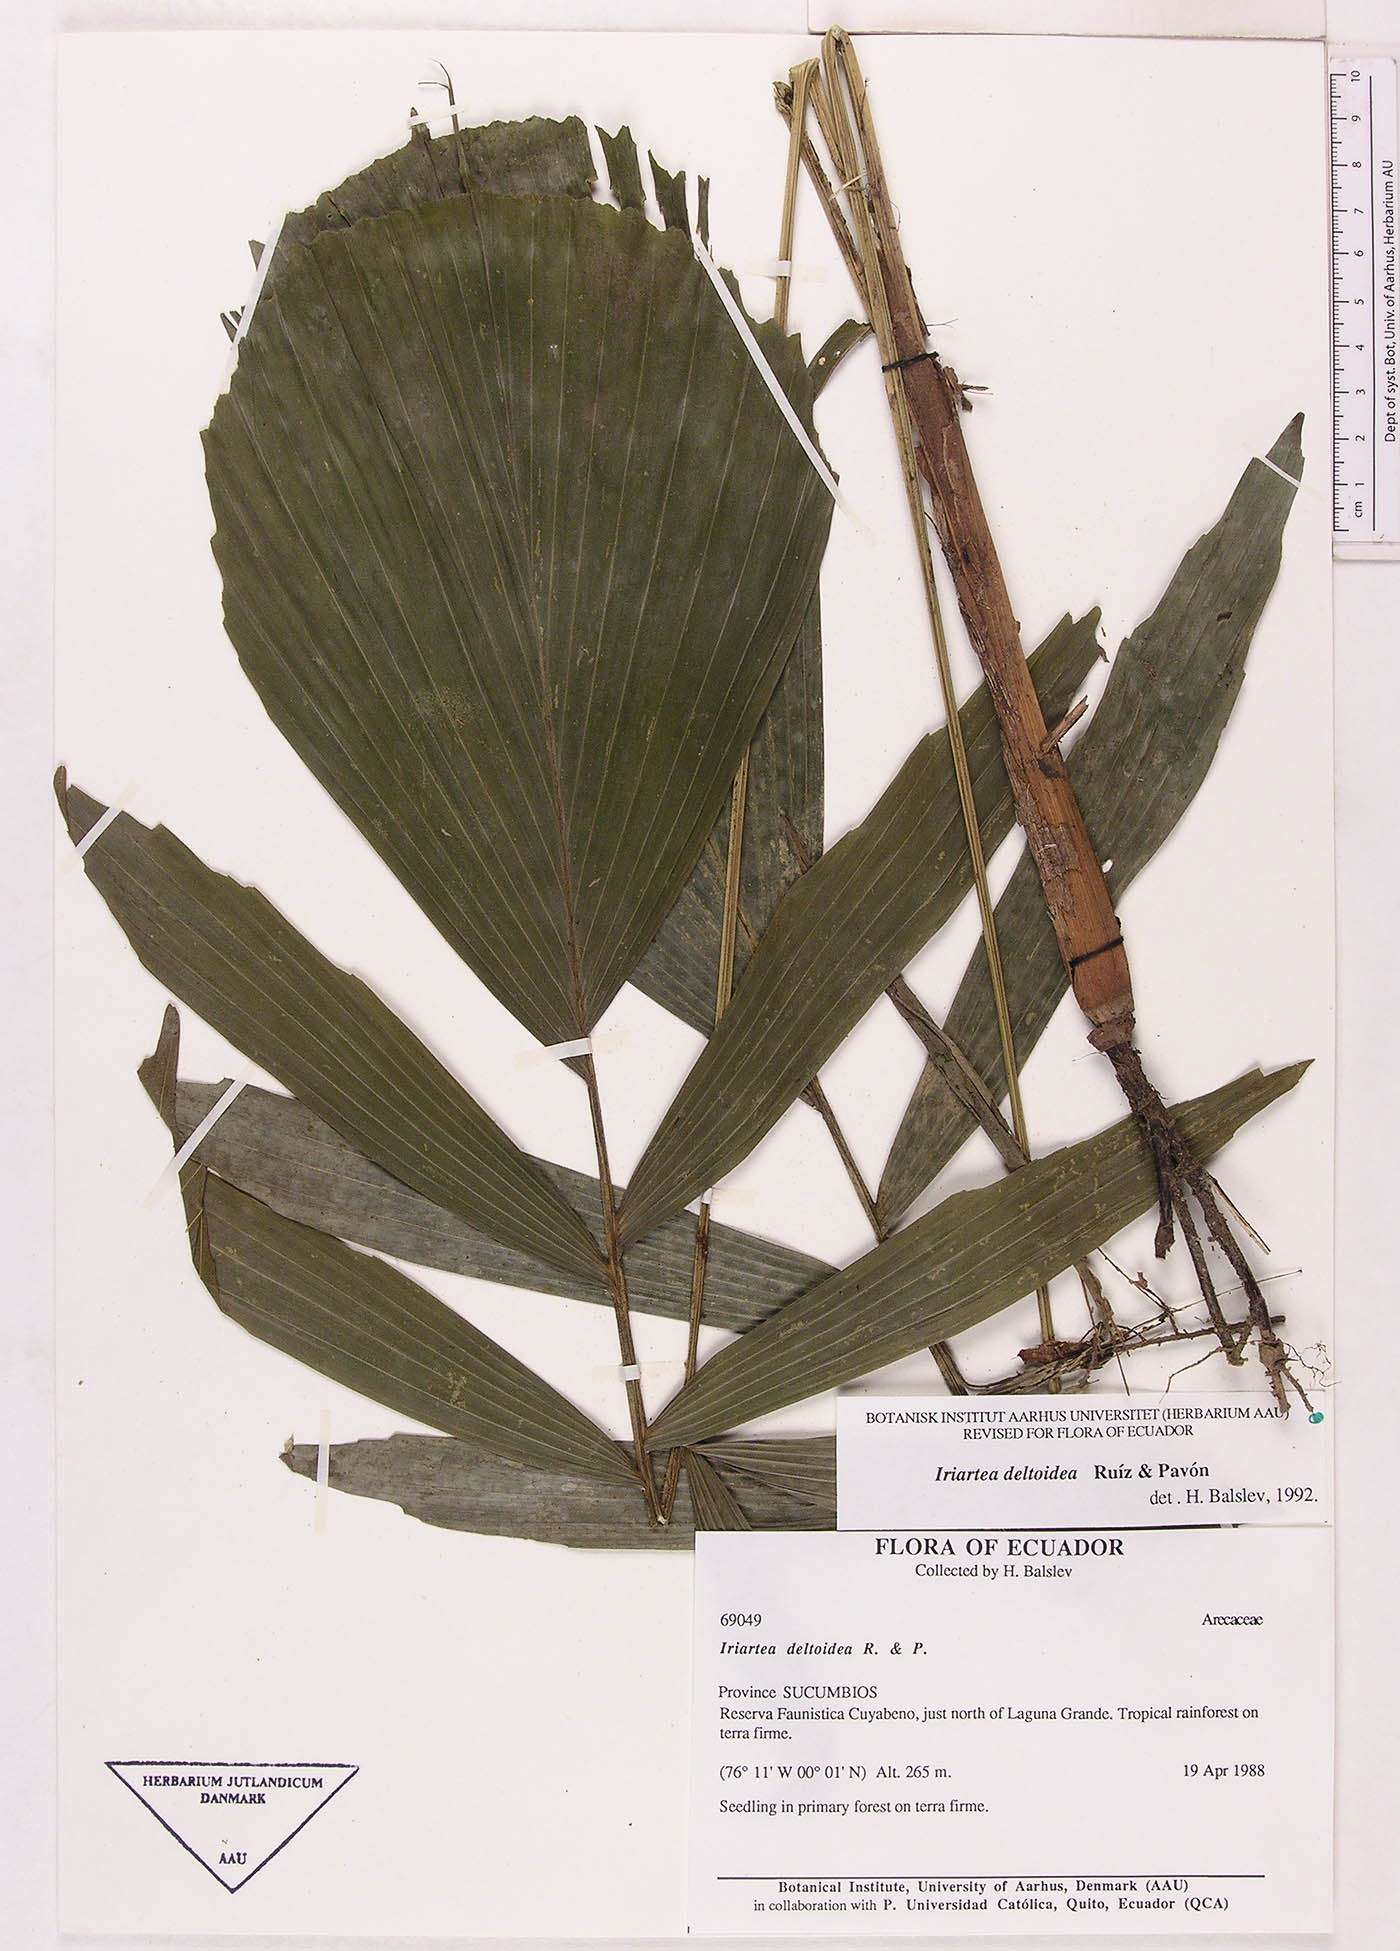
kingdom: Plantae
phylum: Tracheophyta
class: Liliopsida
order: Arecales
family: Arecaceae
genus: Iriartea
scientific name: Iriartea deltoidea
